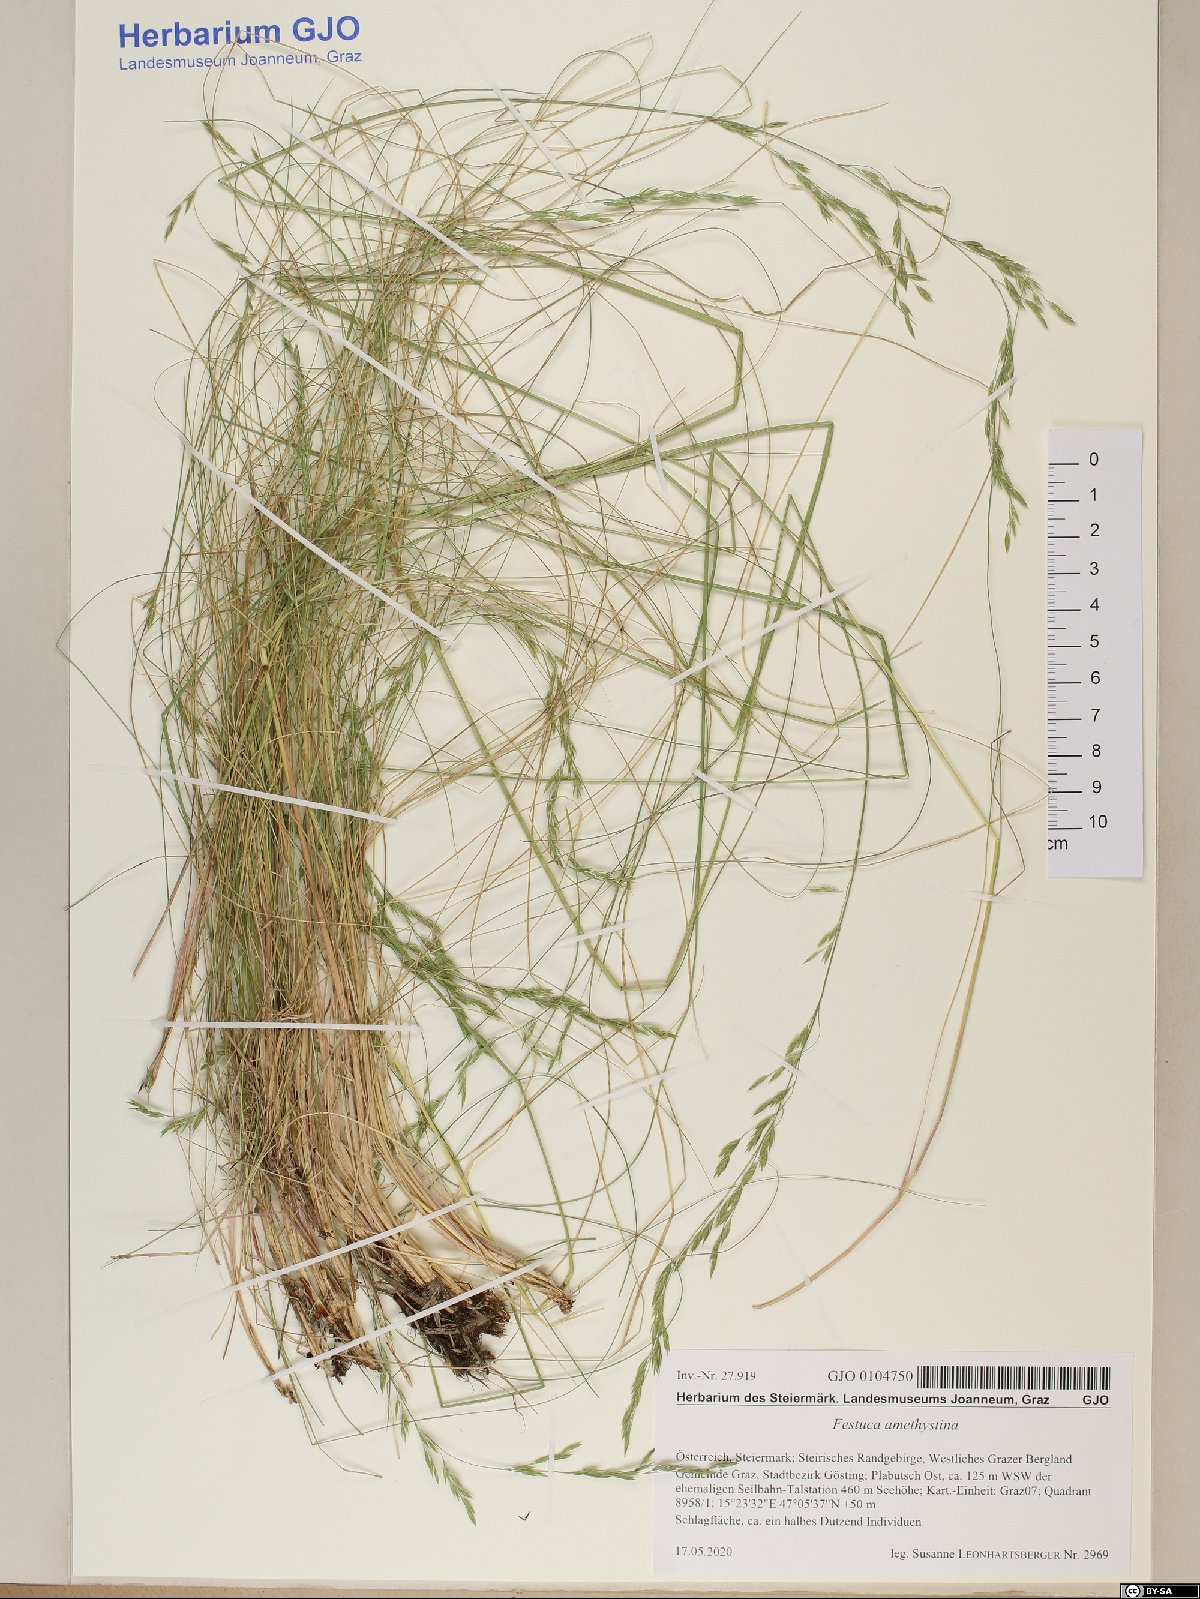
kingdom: Plantae
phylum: Tracheophyta
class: Liliopsida
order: Poales
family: Poaceae
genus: Festuca
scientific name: Festuca amethystina
